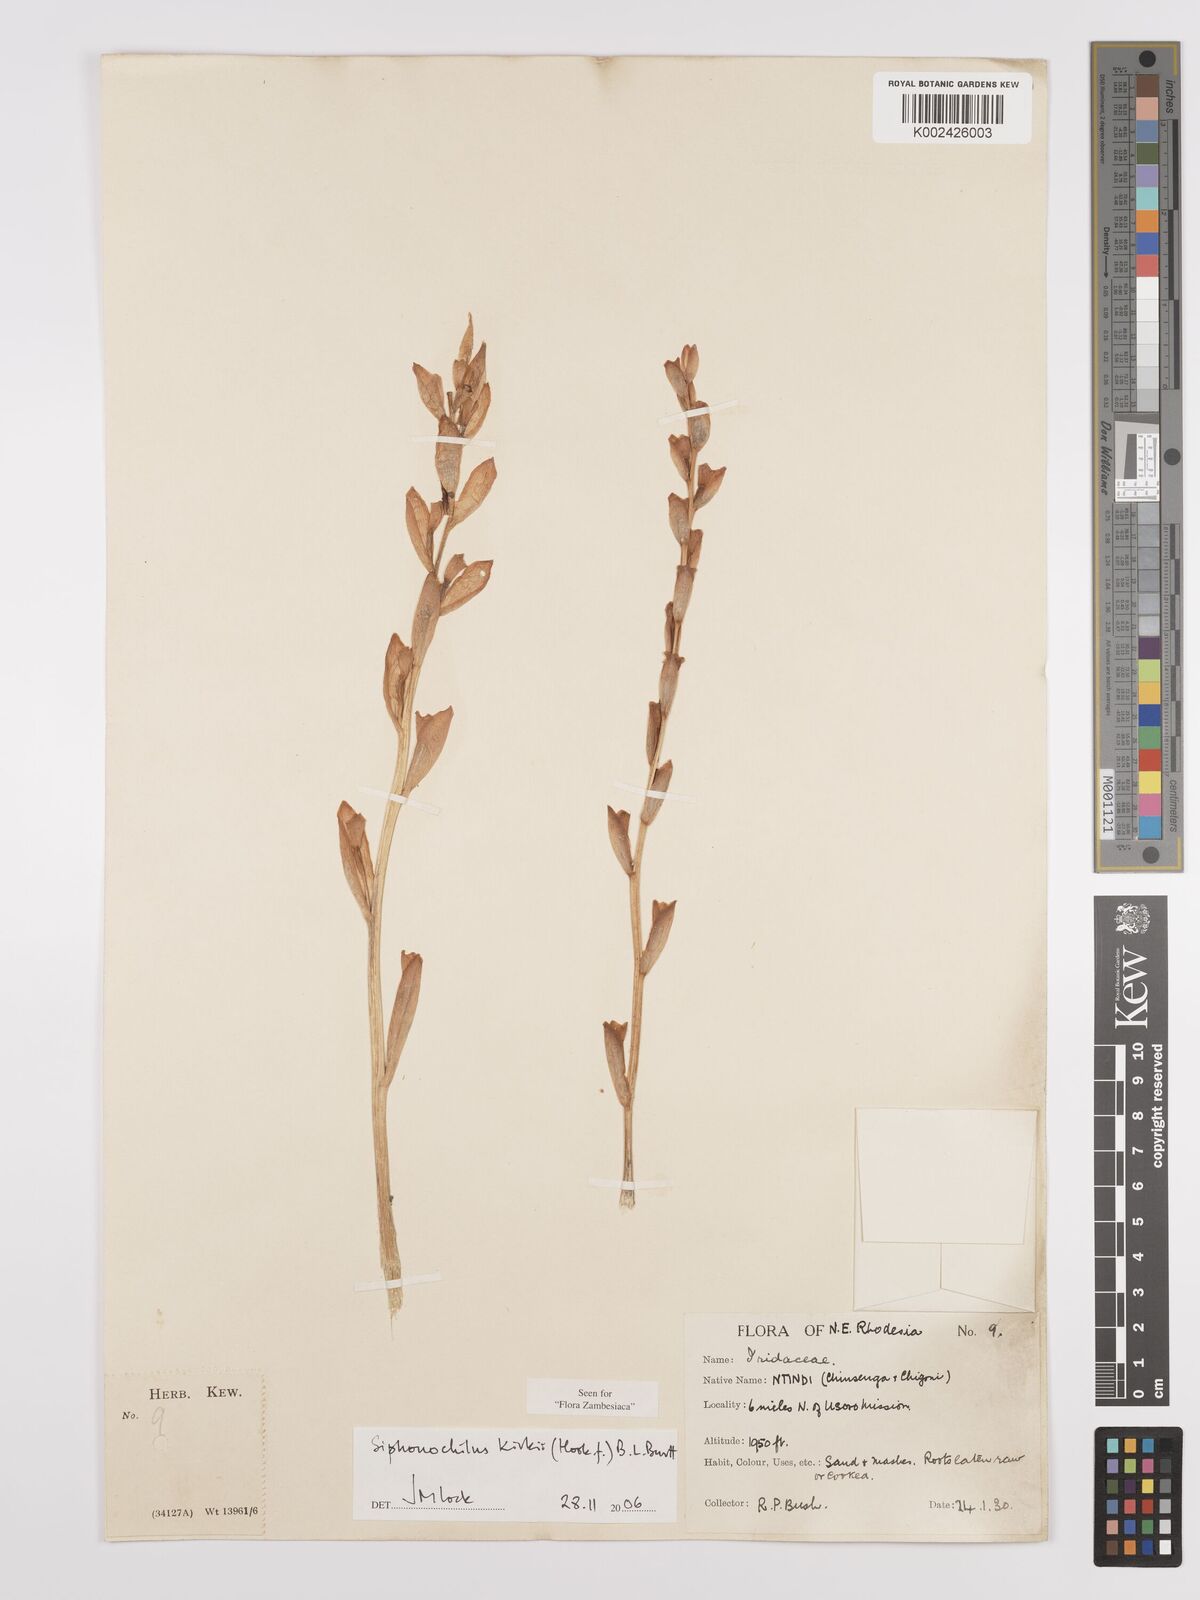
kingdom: Plantae
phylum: Tracheophyta
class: Liliopsida
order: Zingiberales
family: Zingiberaceae
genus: Siphonochilus
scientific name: Siphonochilus kirkii
